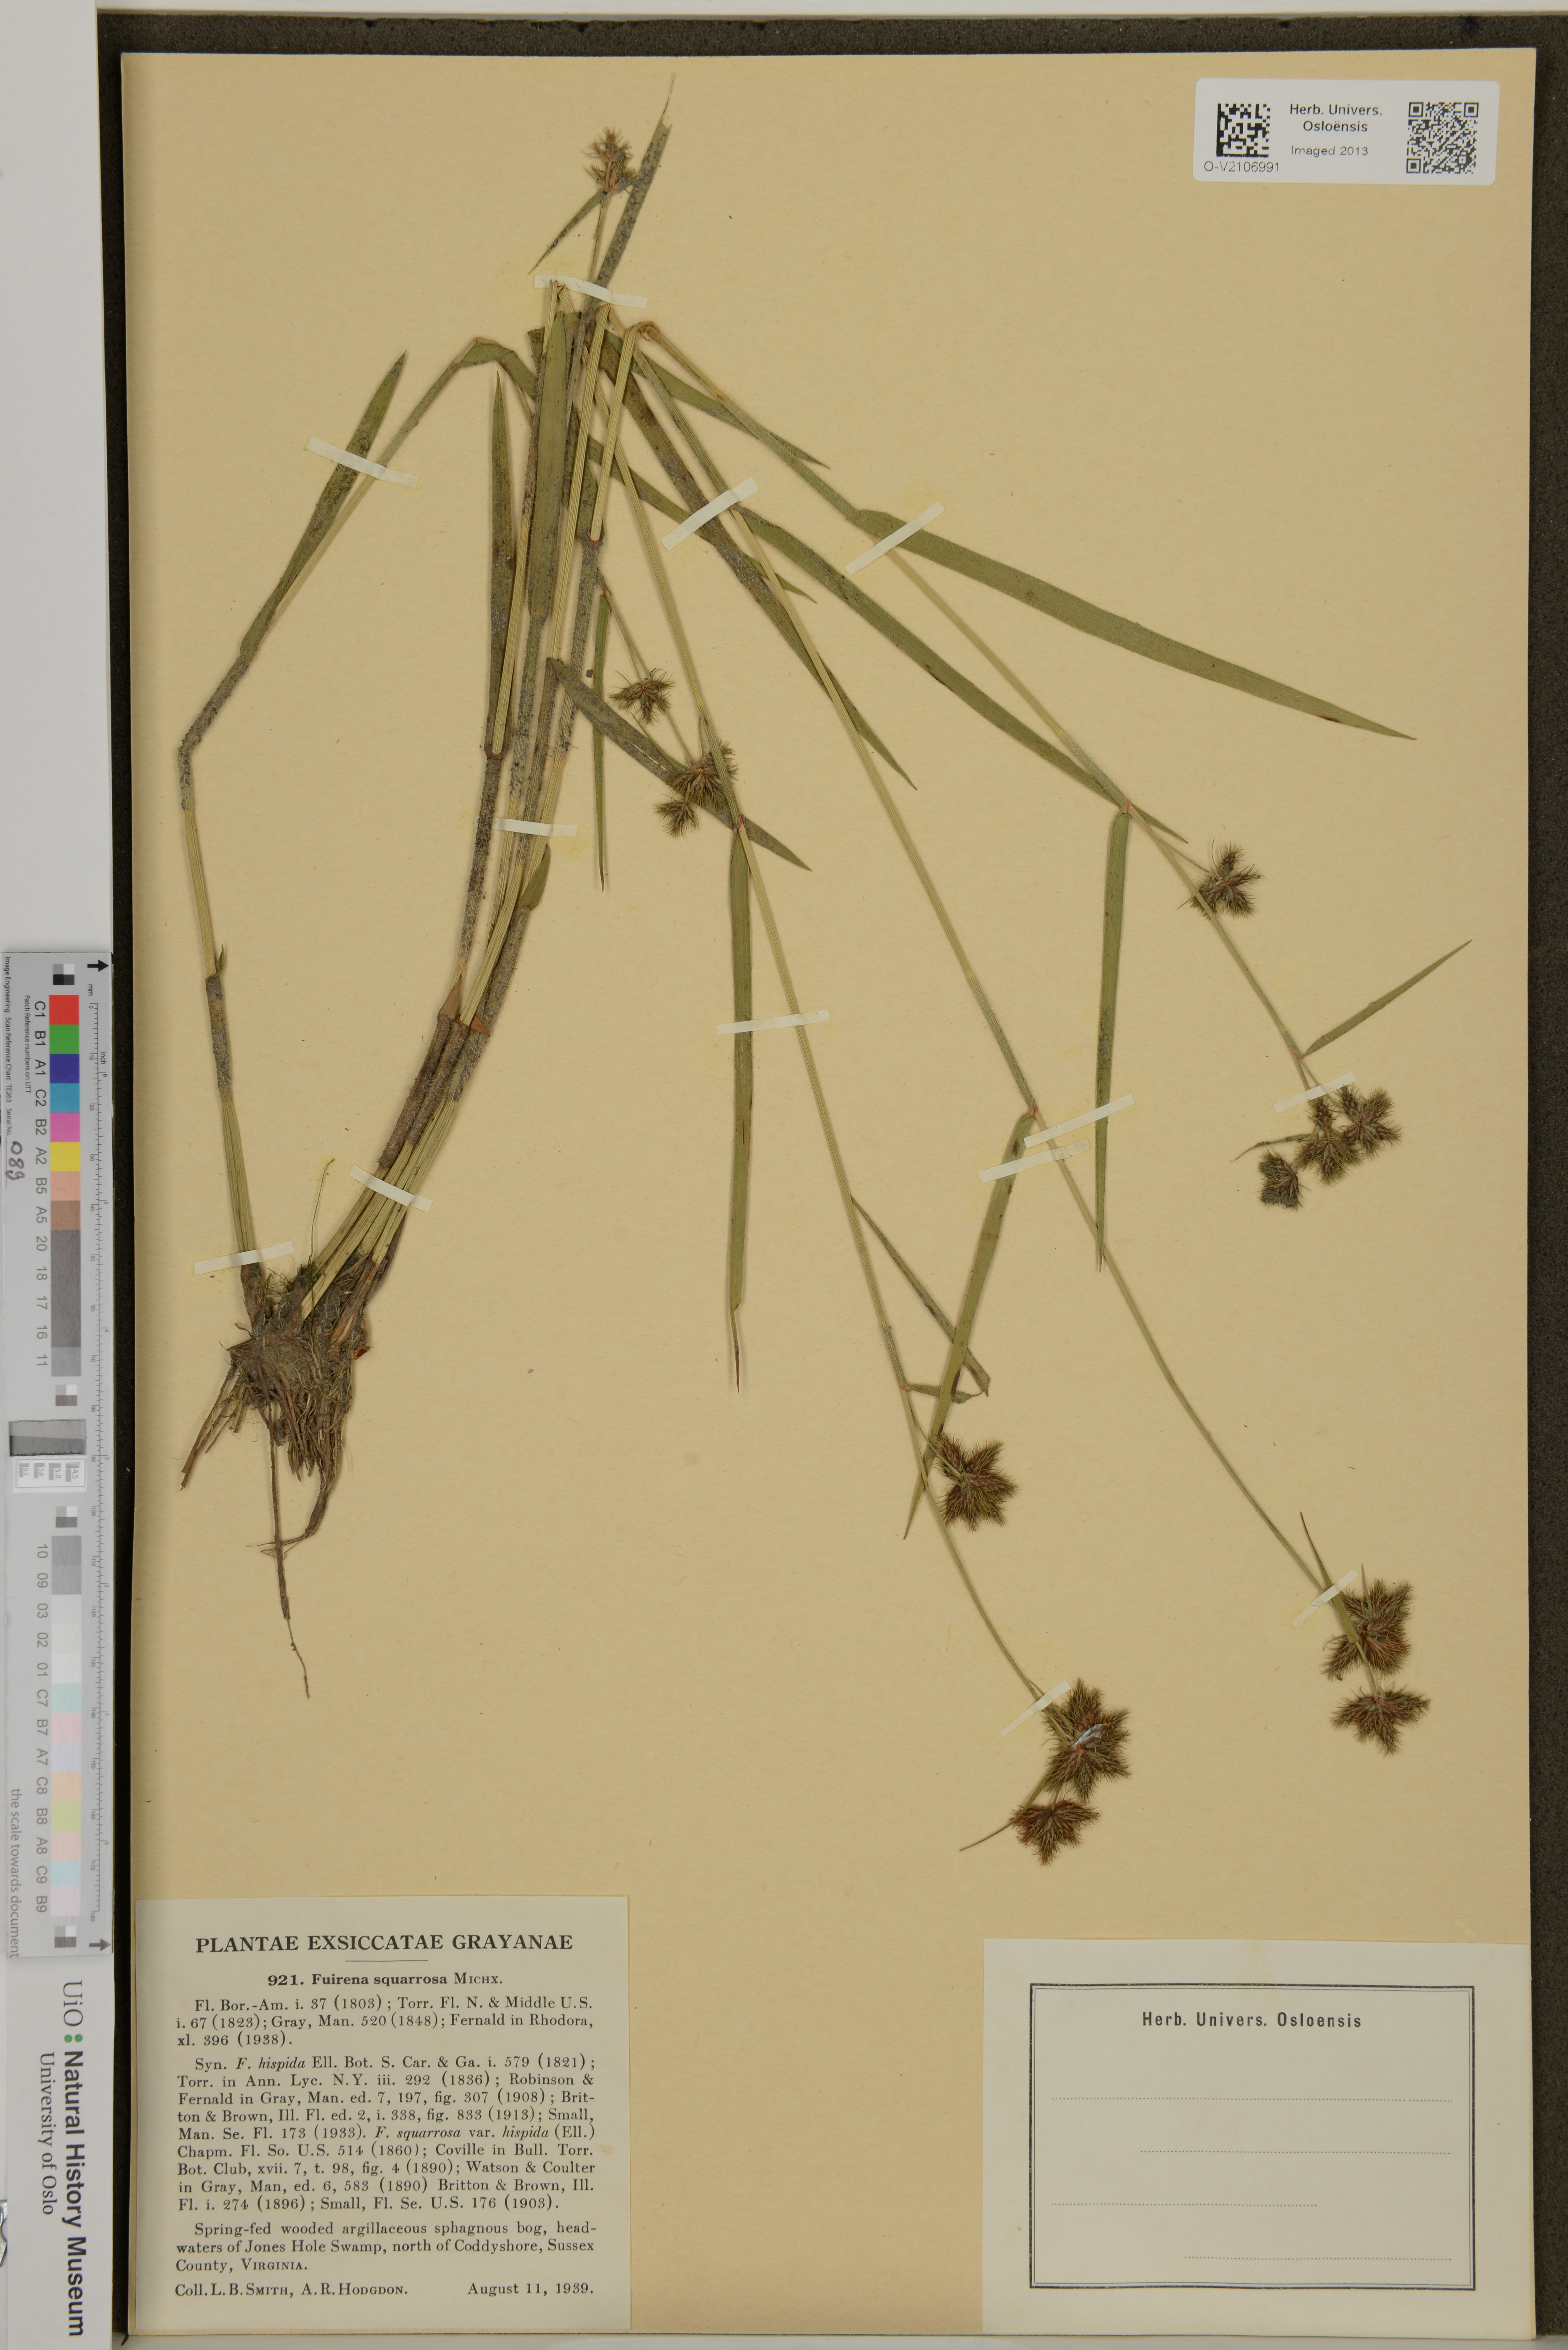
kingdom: Plantae
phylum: Tracheophyta
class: Liliopsida
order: Poales
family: Cyperaceae
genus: Fuirena
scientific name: Fuirena squarrosa
